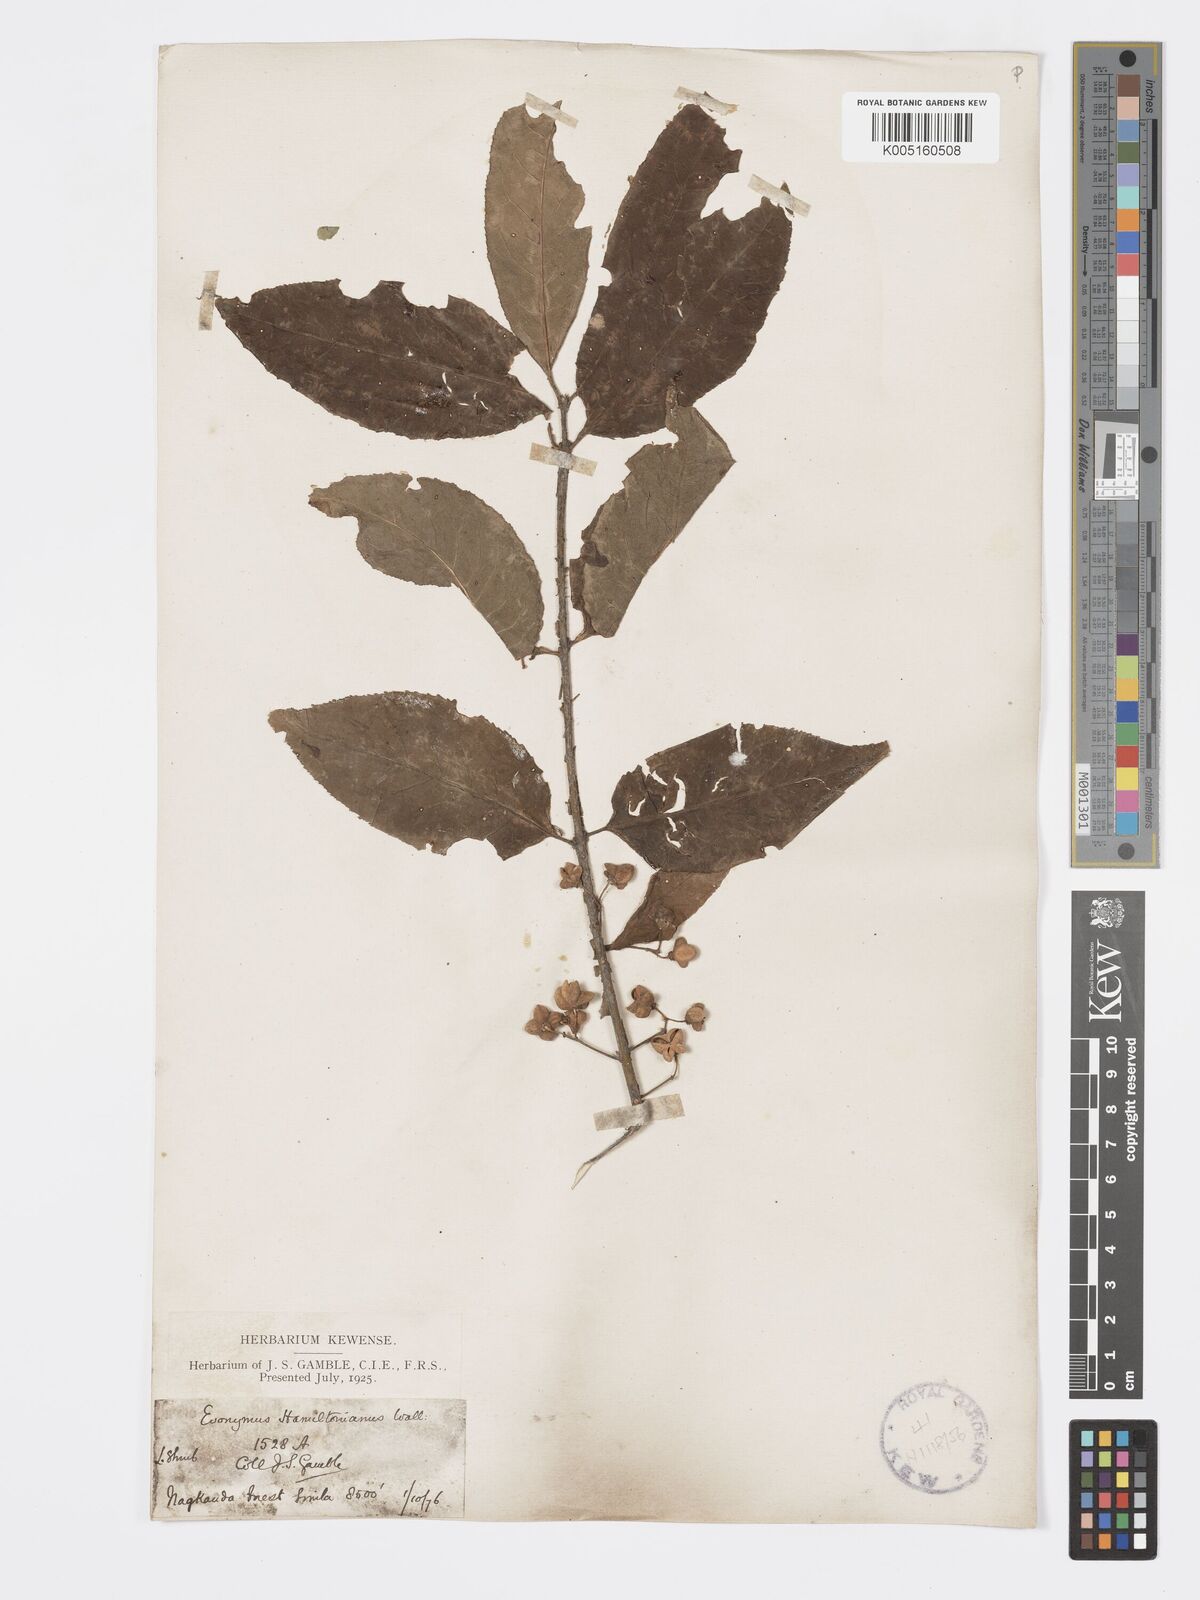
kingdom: Plantae
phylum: Tracheophyta
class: Magnoliopsida
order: Celastrales
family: Celastraceae
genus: Euonymus
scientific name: Euonymus
